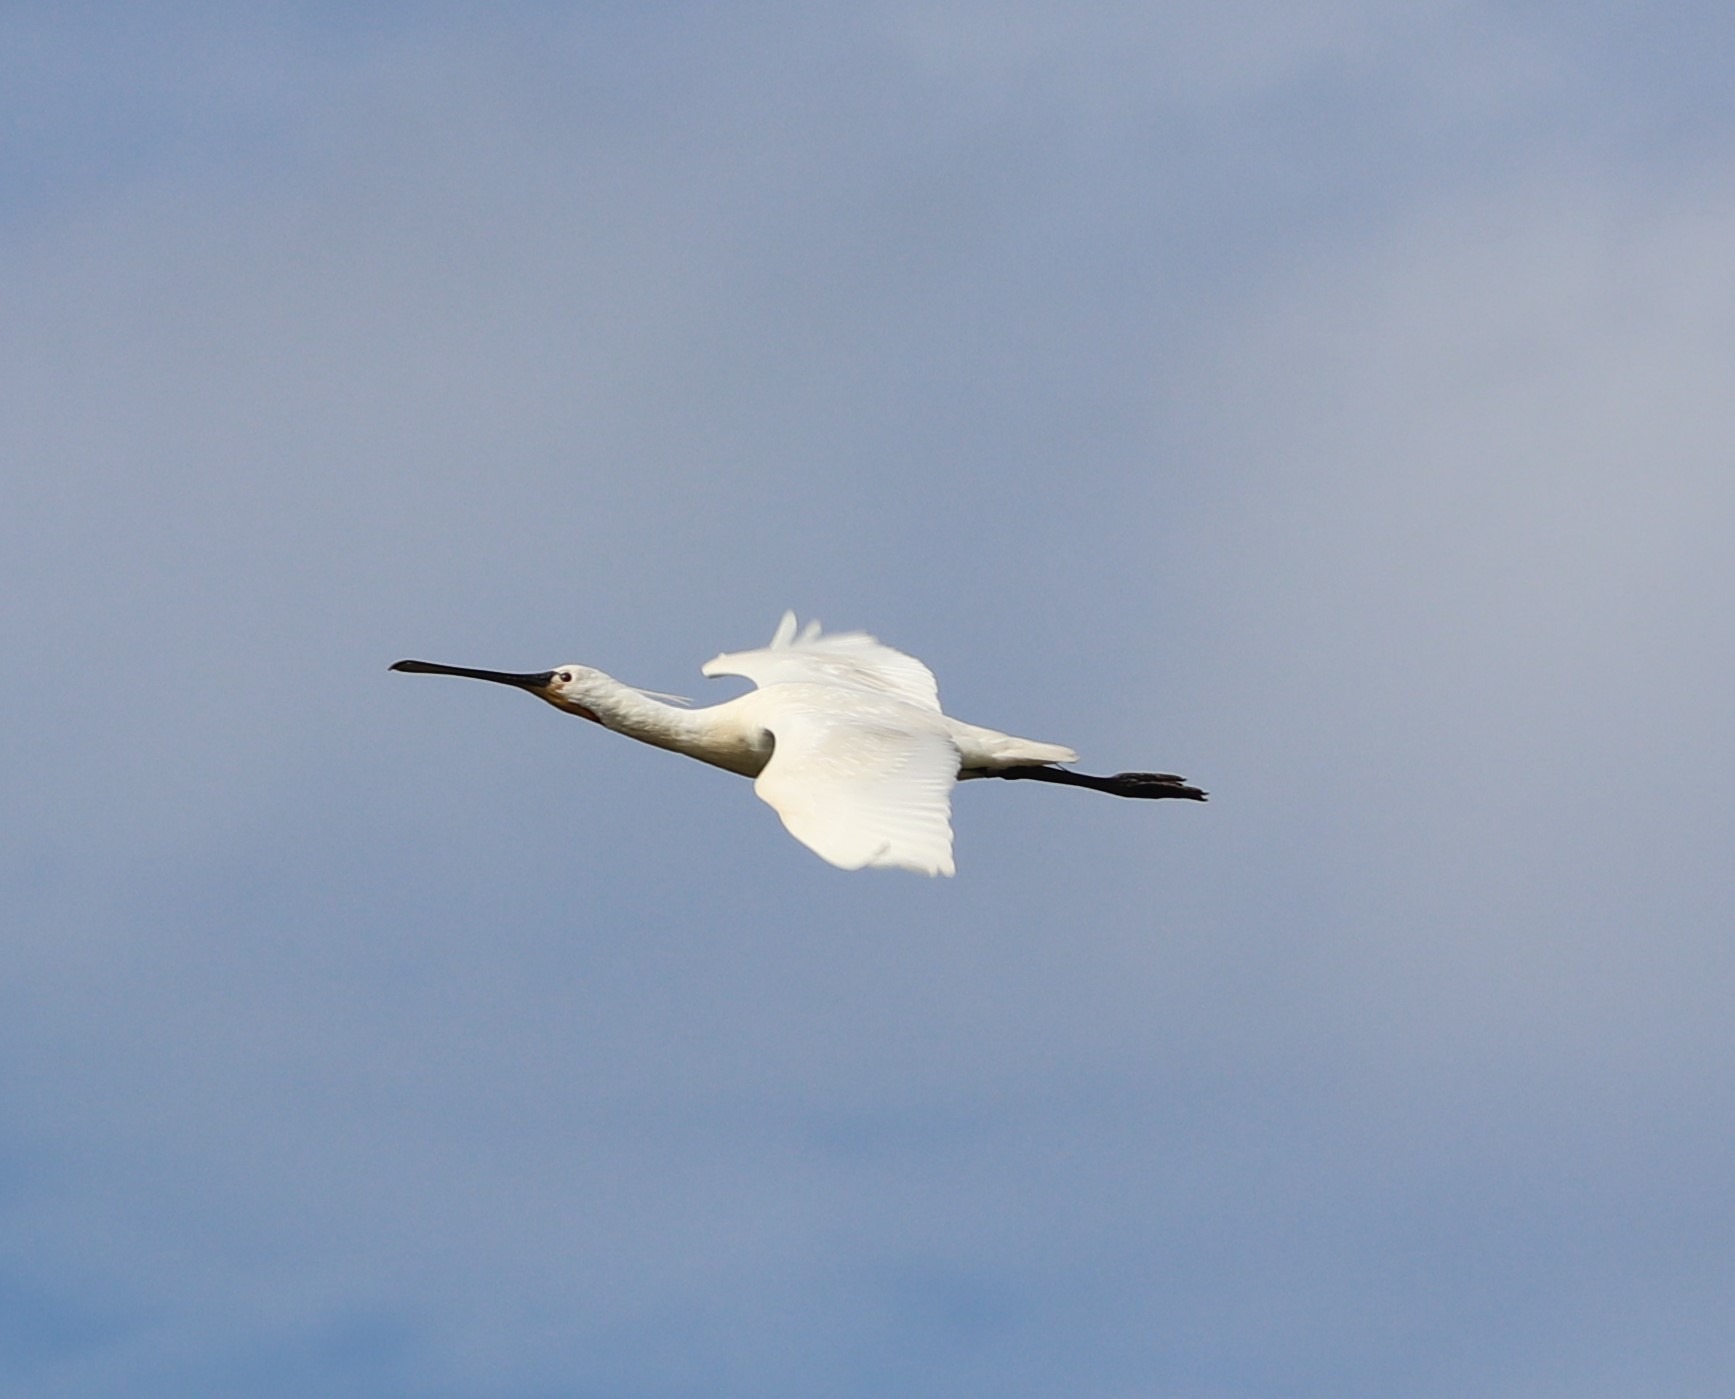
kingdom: Animalia
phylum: Chordata
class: Aves
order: Pelecaniformes
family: Threskiornithidae
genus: Platalea
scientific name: Platalea leucorodia
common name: Skestork
